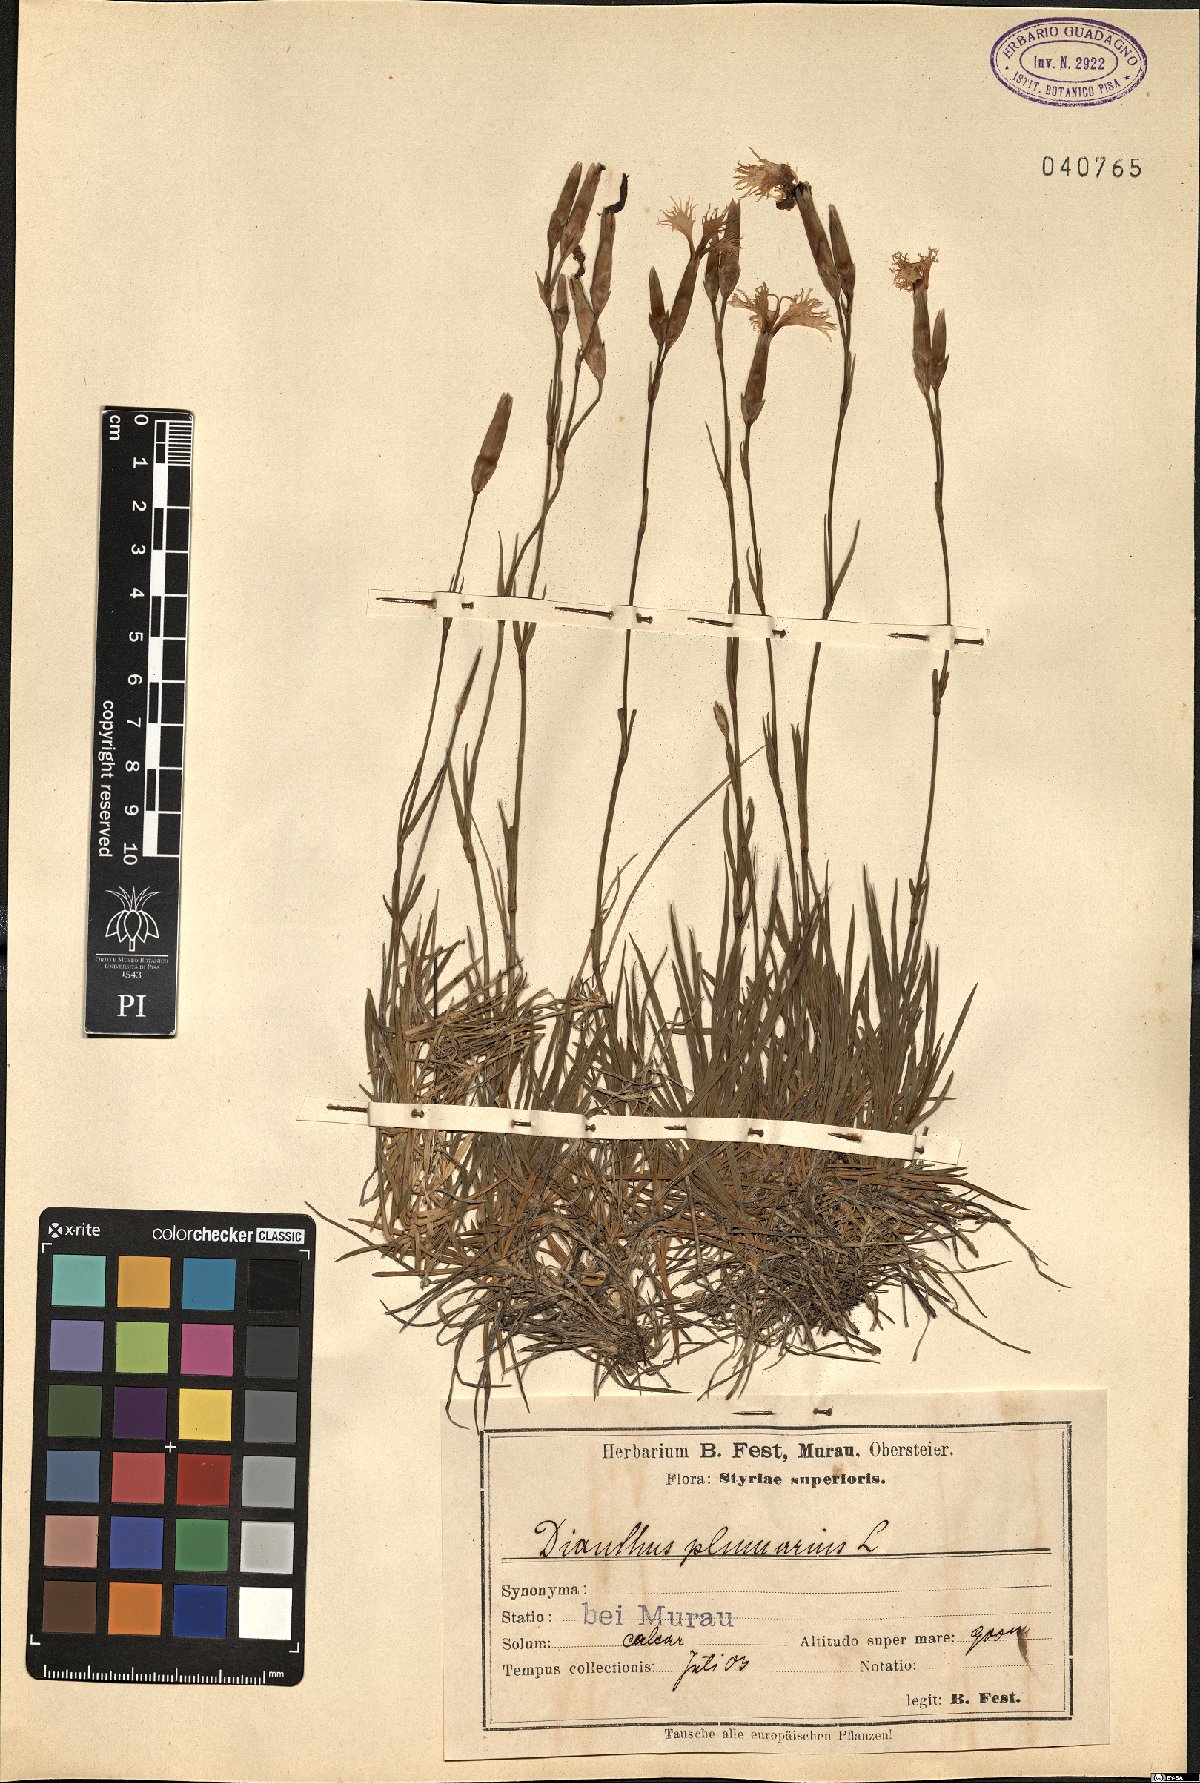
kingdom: Plantae
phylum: Tracheophyta
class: Magnoliopsida
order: Caryophyllales
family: Caryophyllaceae
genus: Dianthus
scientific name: Dianthus plumarius
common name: Pink
